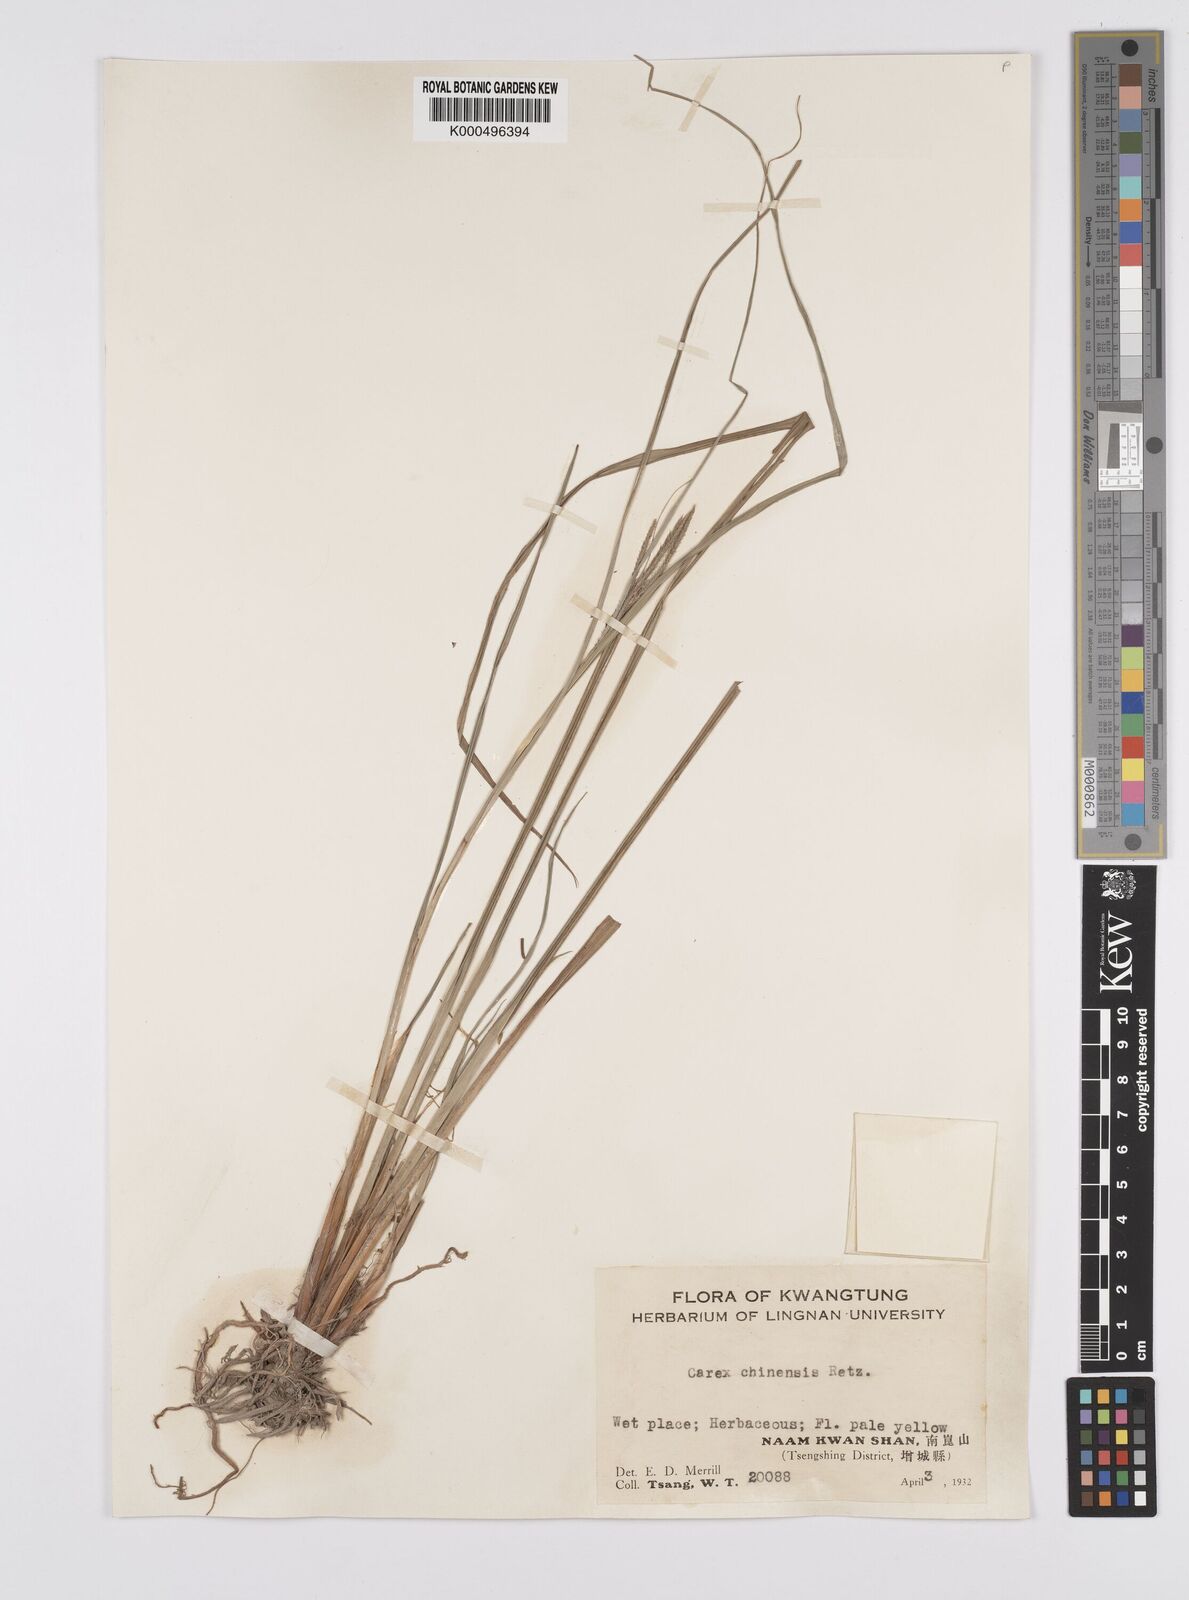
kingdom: Plantae
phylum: Tracheophyta
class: Liliopsida
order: Poales
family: Cyperaceae
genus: Carex
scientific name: Carex chinensis
